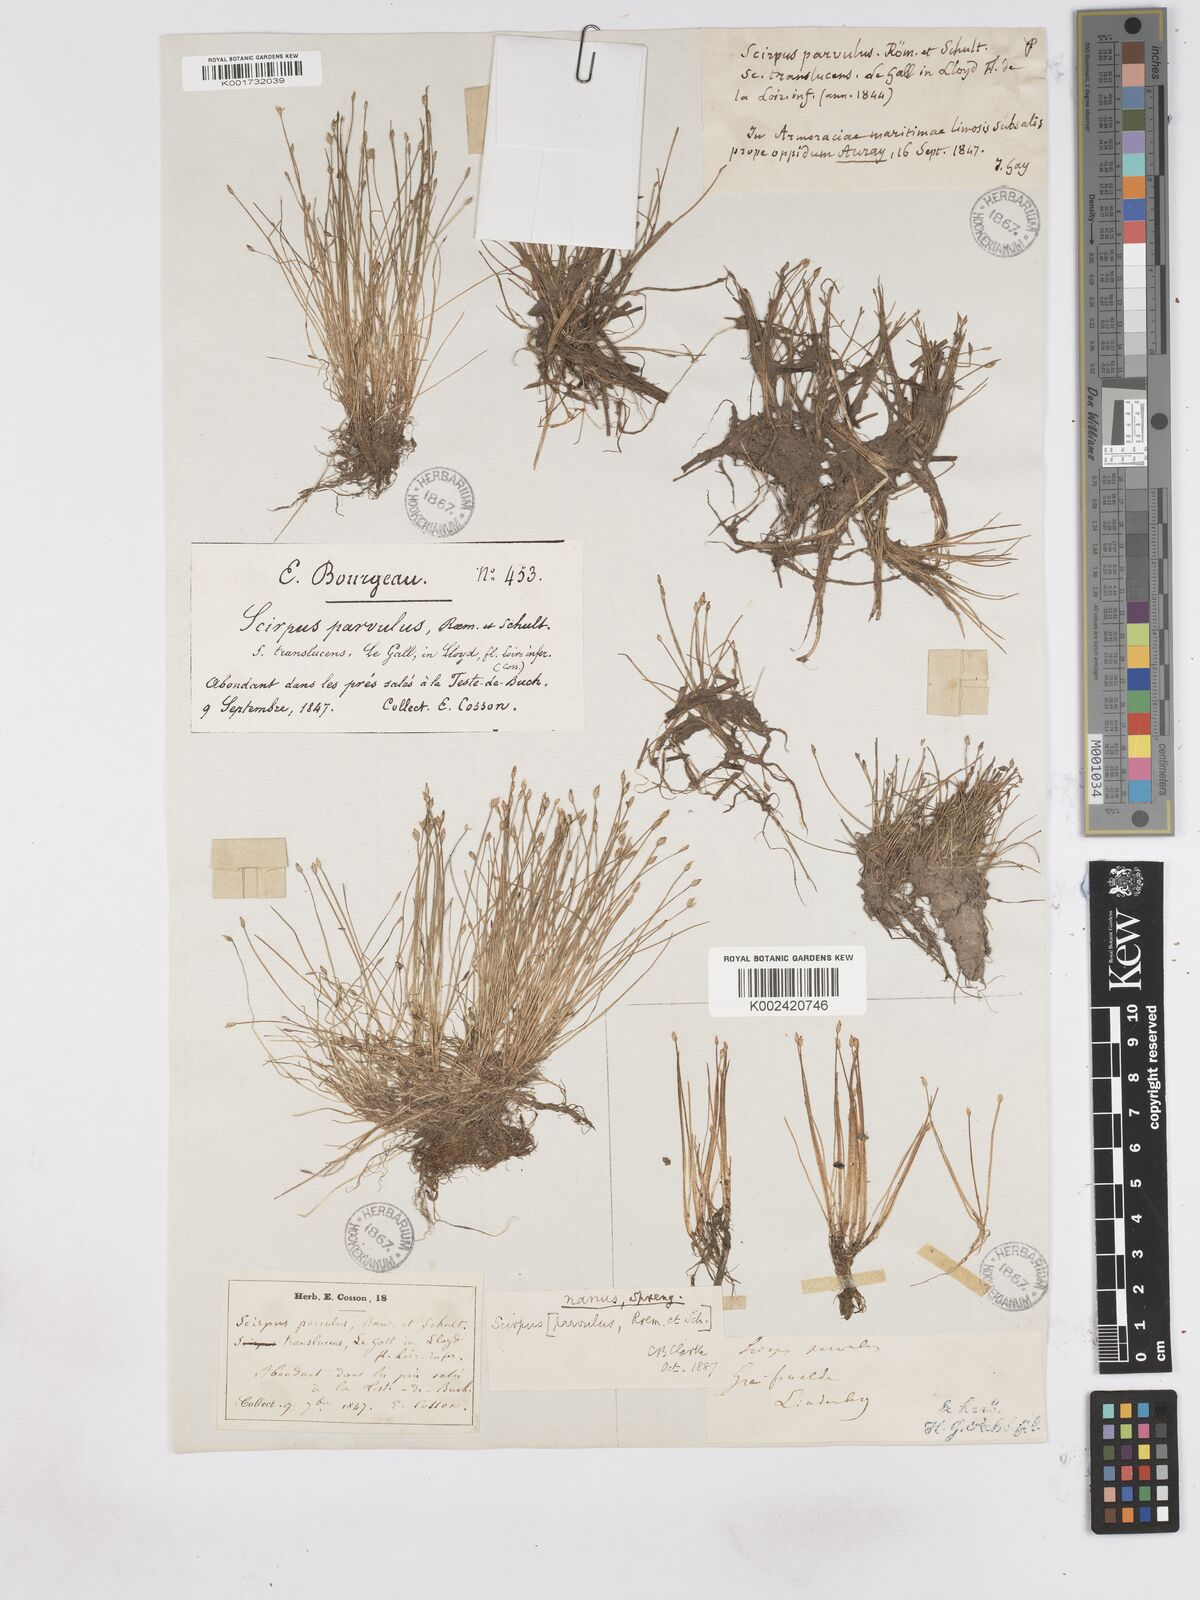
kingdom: Plantae
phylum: Tracheophyta
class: Liliopsida
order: Poales
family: Cyperaceae
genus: Eleocharis
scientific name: Eleocharis parvula
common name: Dwarf spike-rush
